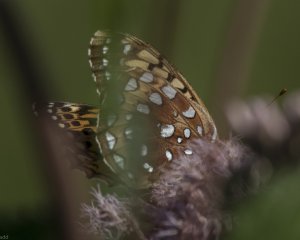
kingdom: Animalia
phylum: Arthropoda
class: Insecta
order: Lepidoptera
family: Nymphalidae
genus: Speyeria
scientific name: Speyeria cybele
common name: Great Spangled Fritillary
